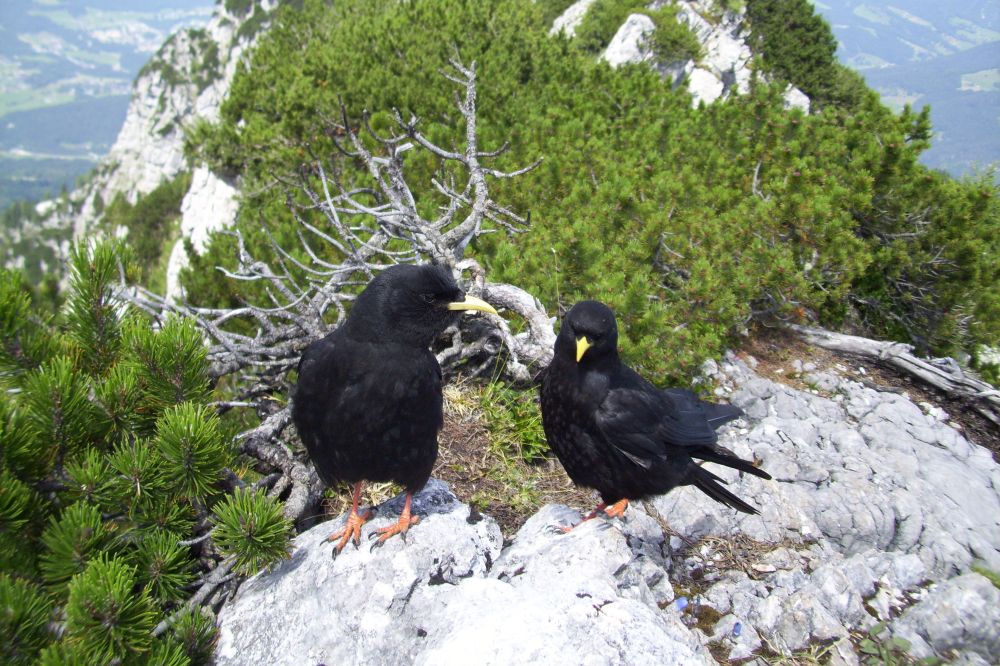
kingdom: Animalia
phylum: Chordata
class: Aves
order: Passeriformes
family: Corvidae
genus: Pyrrhocorax
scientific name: Pyrrhocorax graculus
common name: Alpine chough
